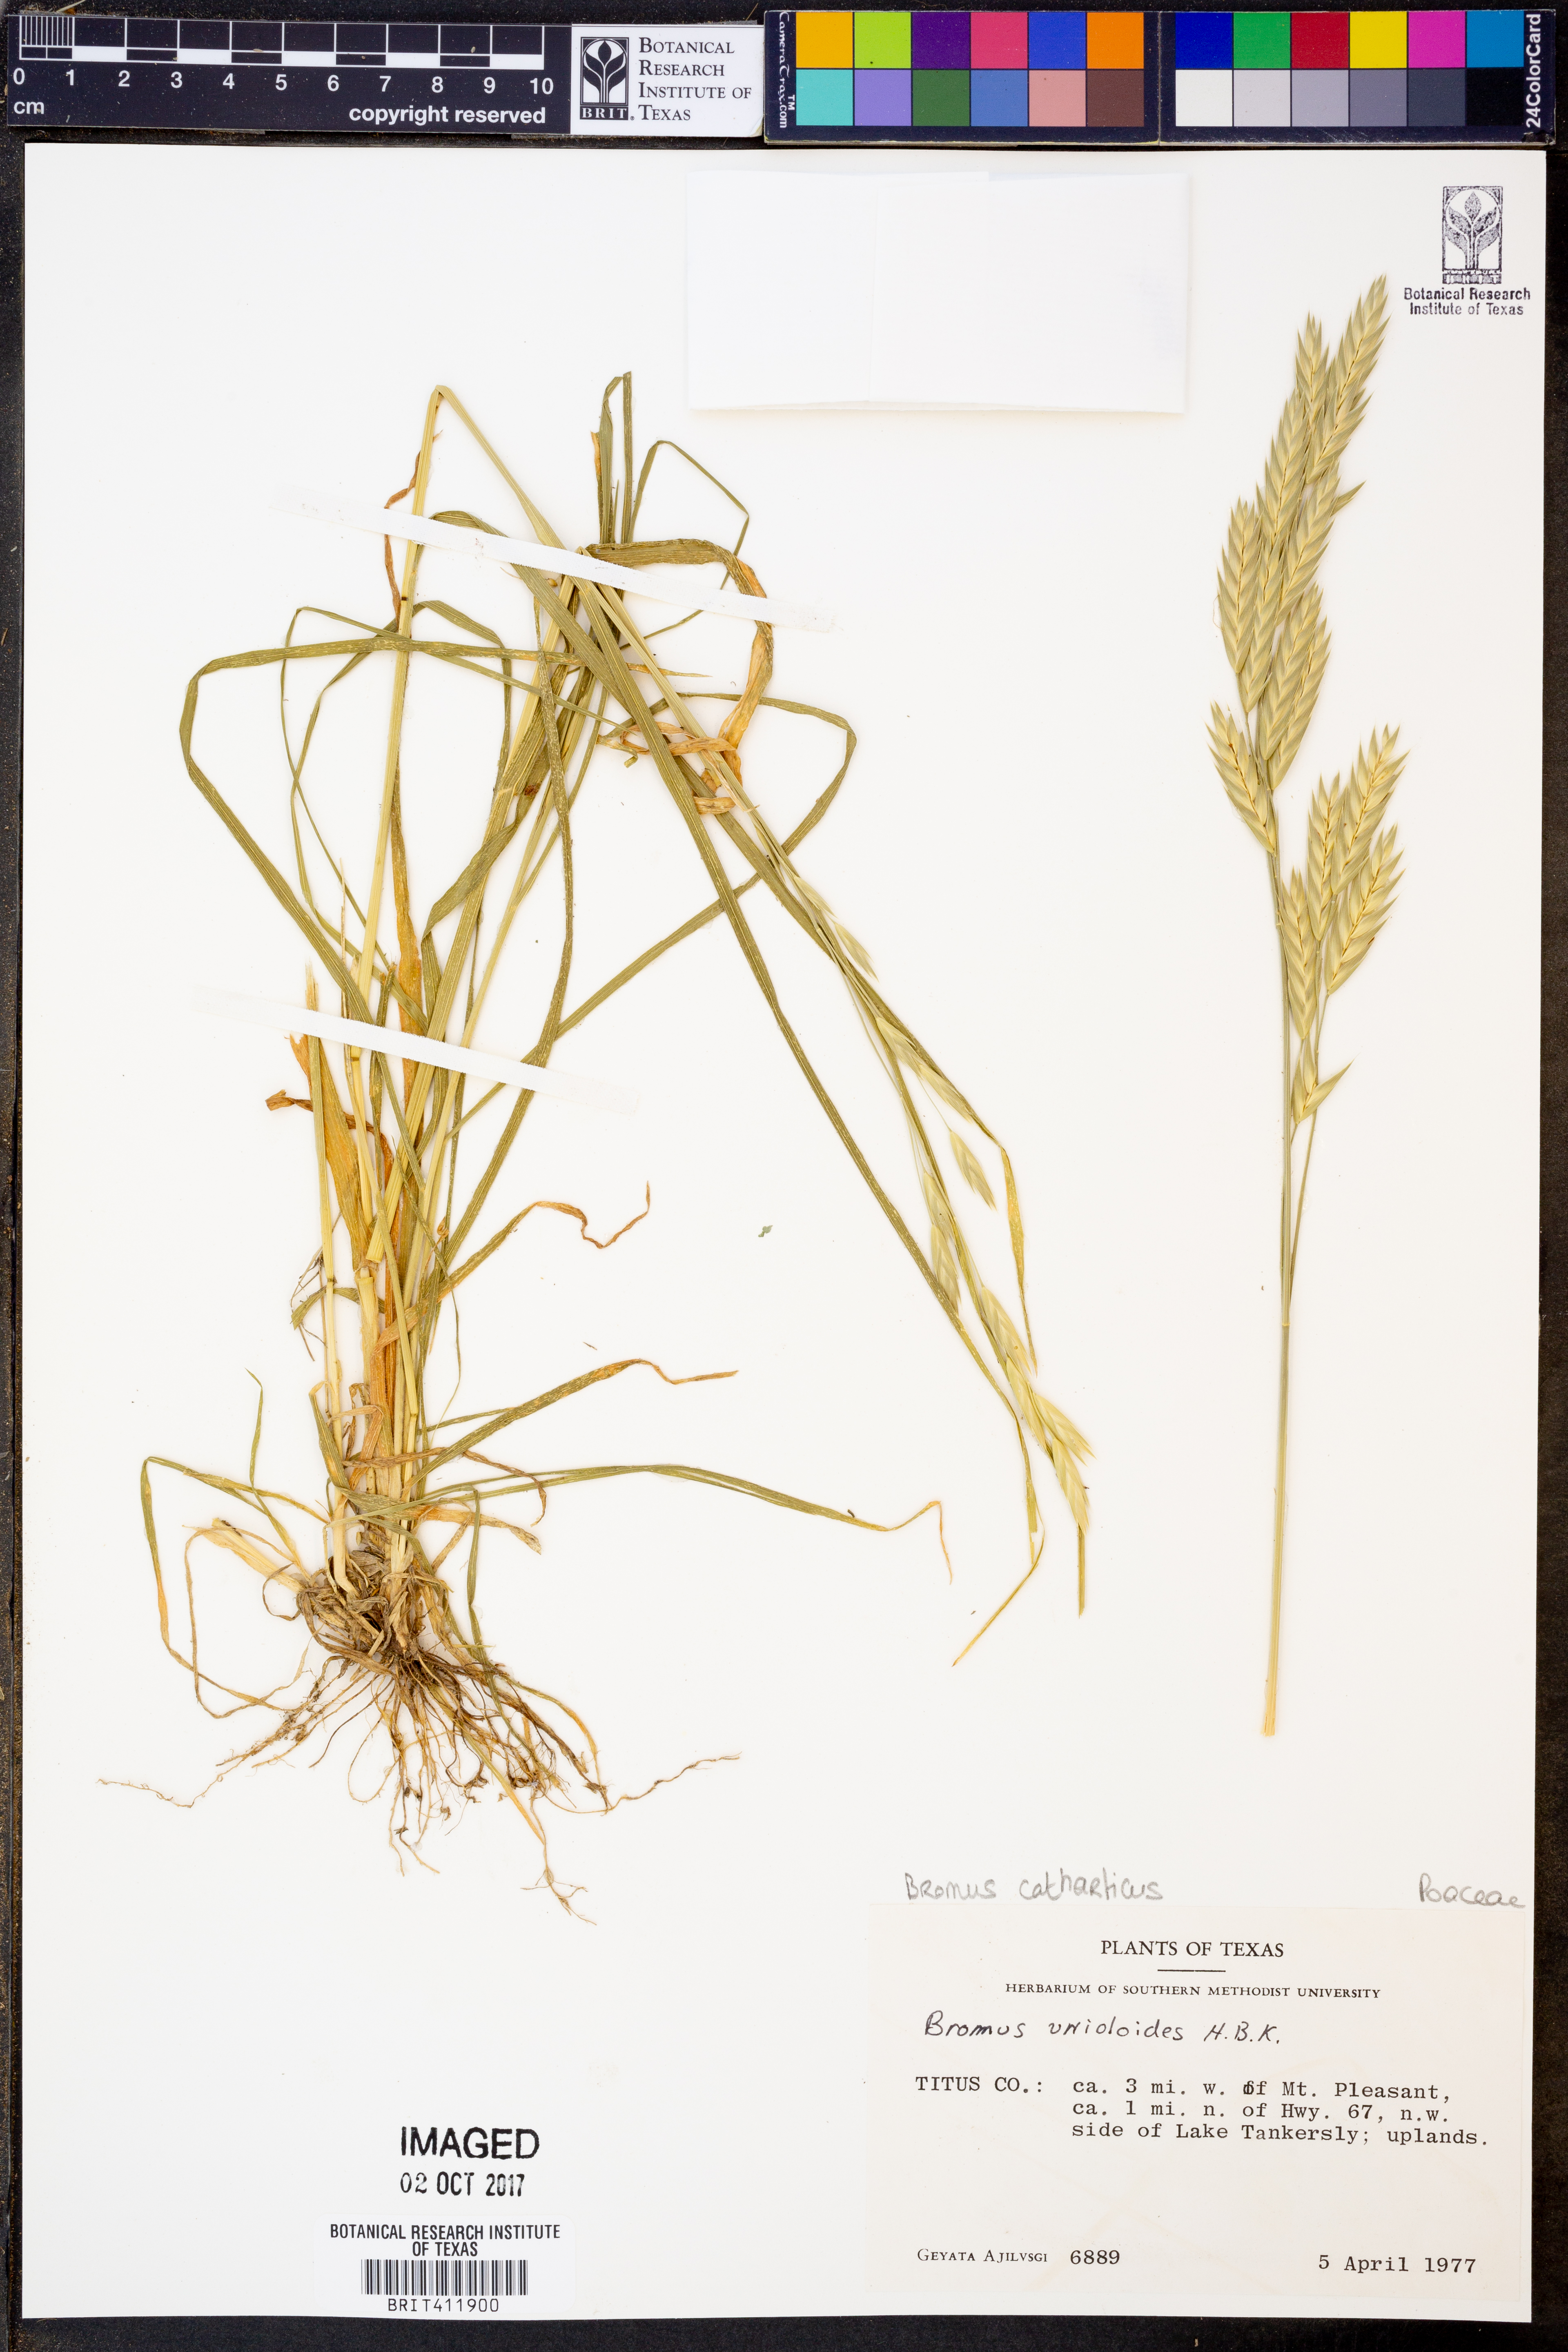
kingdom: Plantae
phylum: Tracheophyta
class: Liliopsida
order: Poales
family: Poaceae
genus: Bromus
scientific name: Bromus catharticus
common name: Rescuegrass
